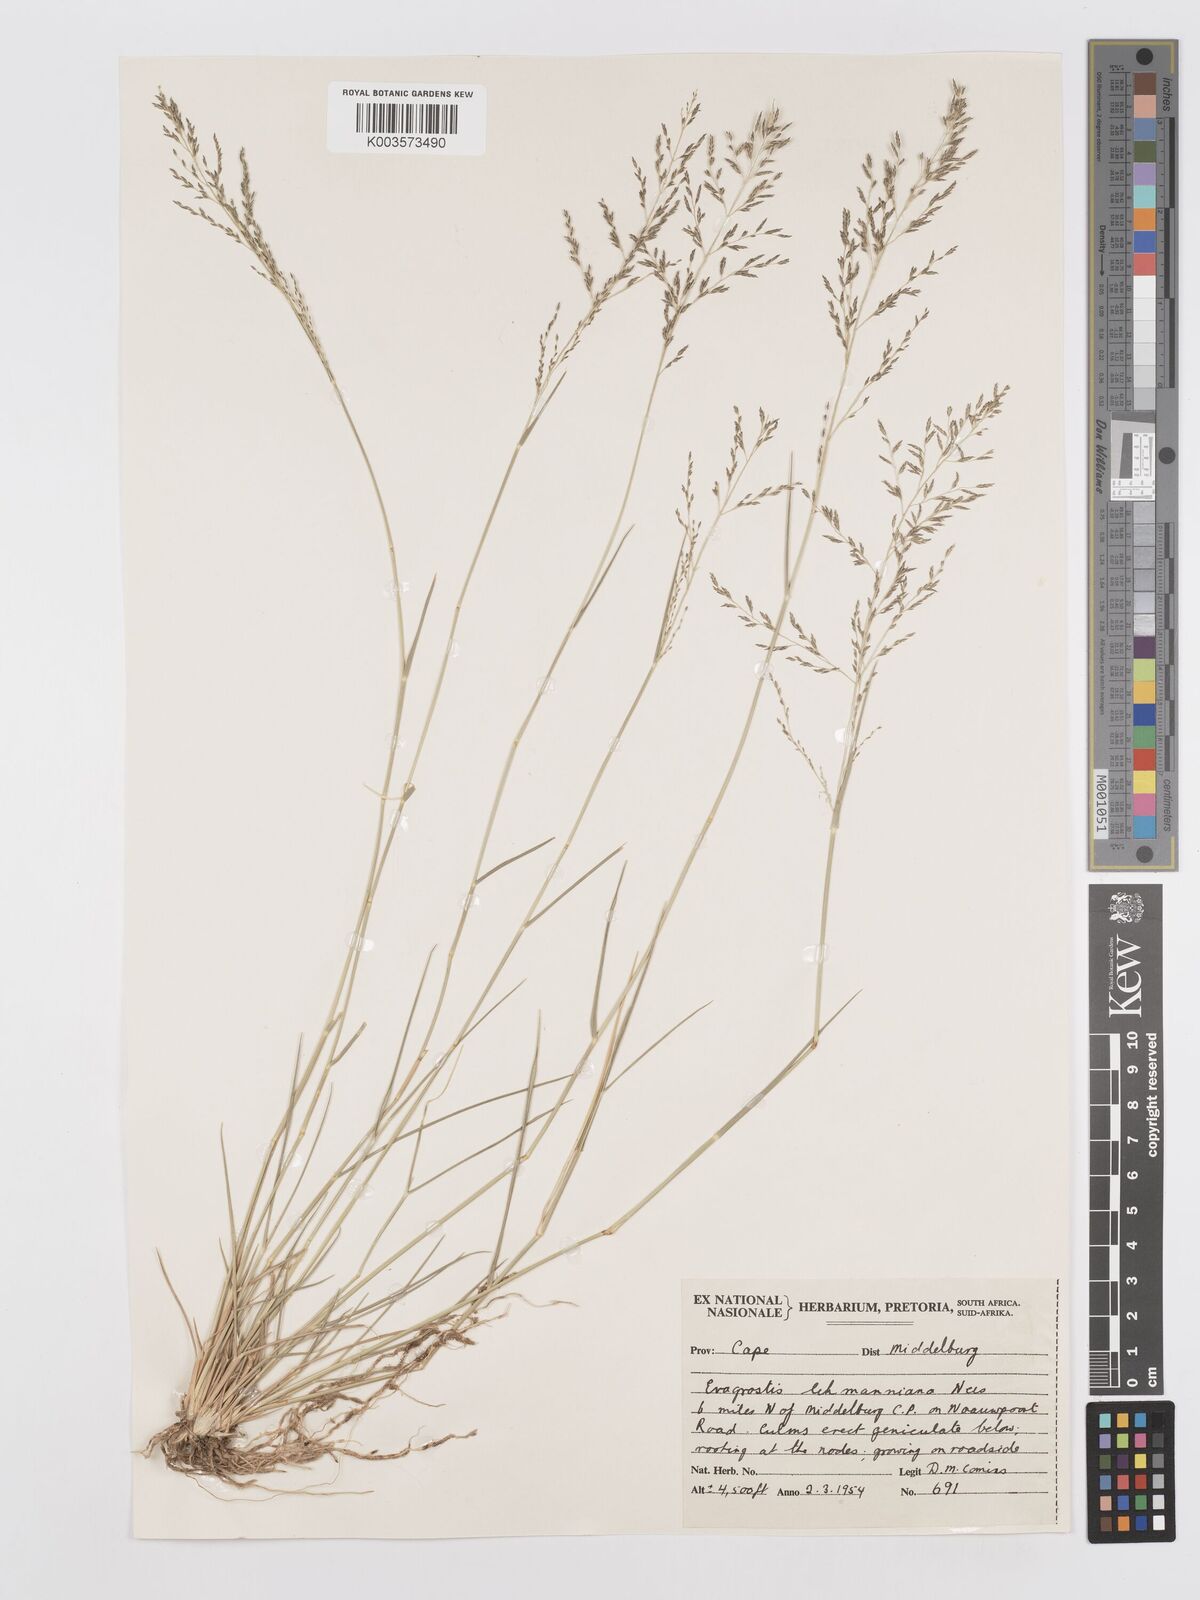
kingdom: Plantae
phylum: Tracheophyta
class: Liliopsida
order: Poales
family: Poaceae
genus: Eragrostis
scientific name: Eragrostis lehmanniana
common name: Lehmann lovegrass
